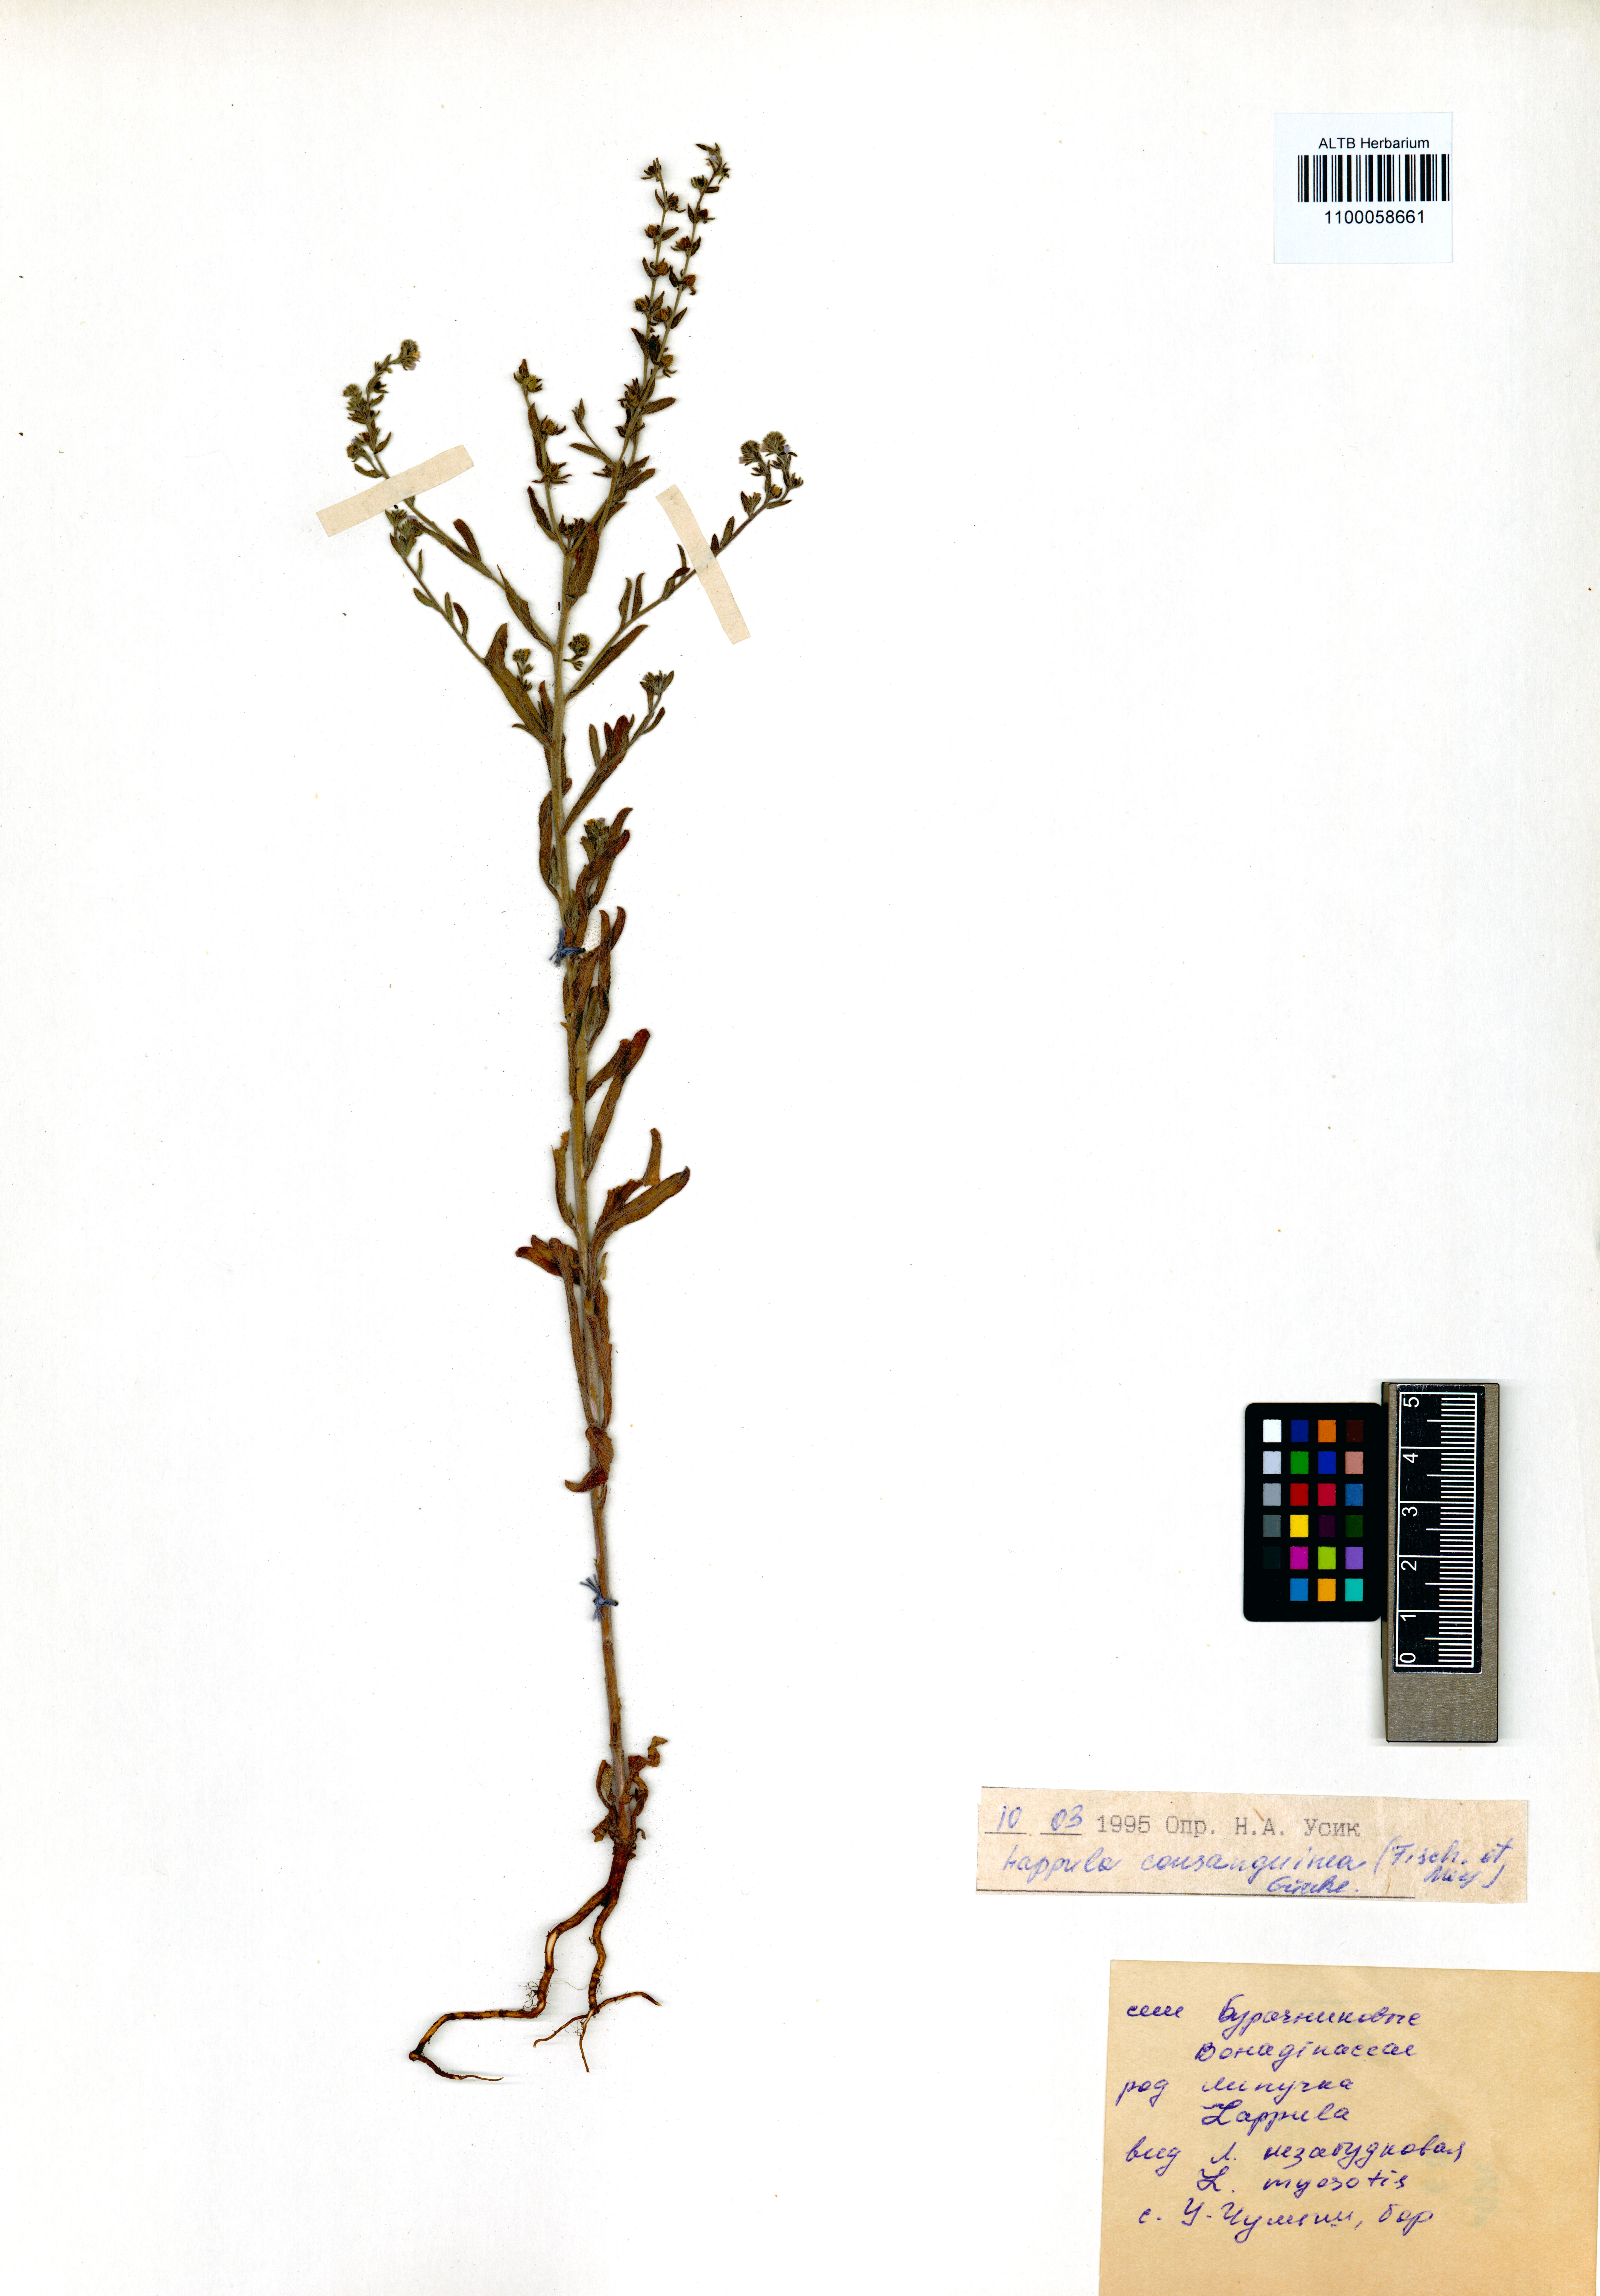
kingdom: Plantae
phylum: Tracheophyta
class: Magnoliopsida
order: Boraginales
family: Boraginaceae
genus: Lappula
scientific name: Lappula squarrosa
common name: European stickseed
